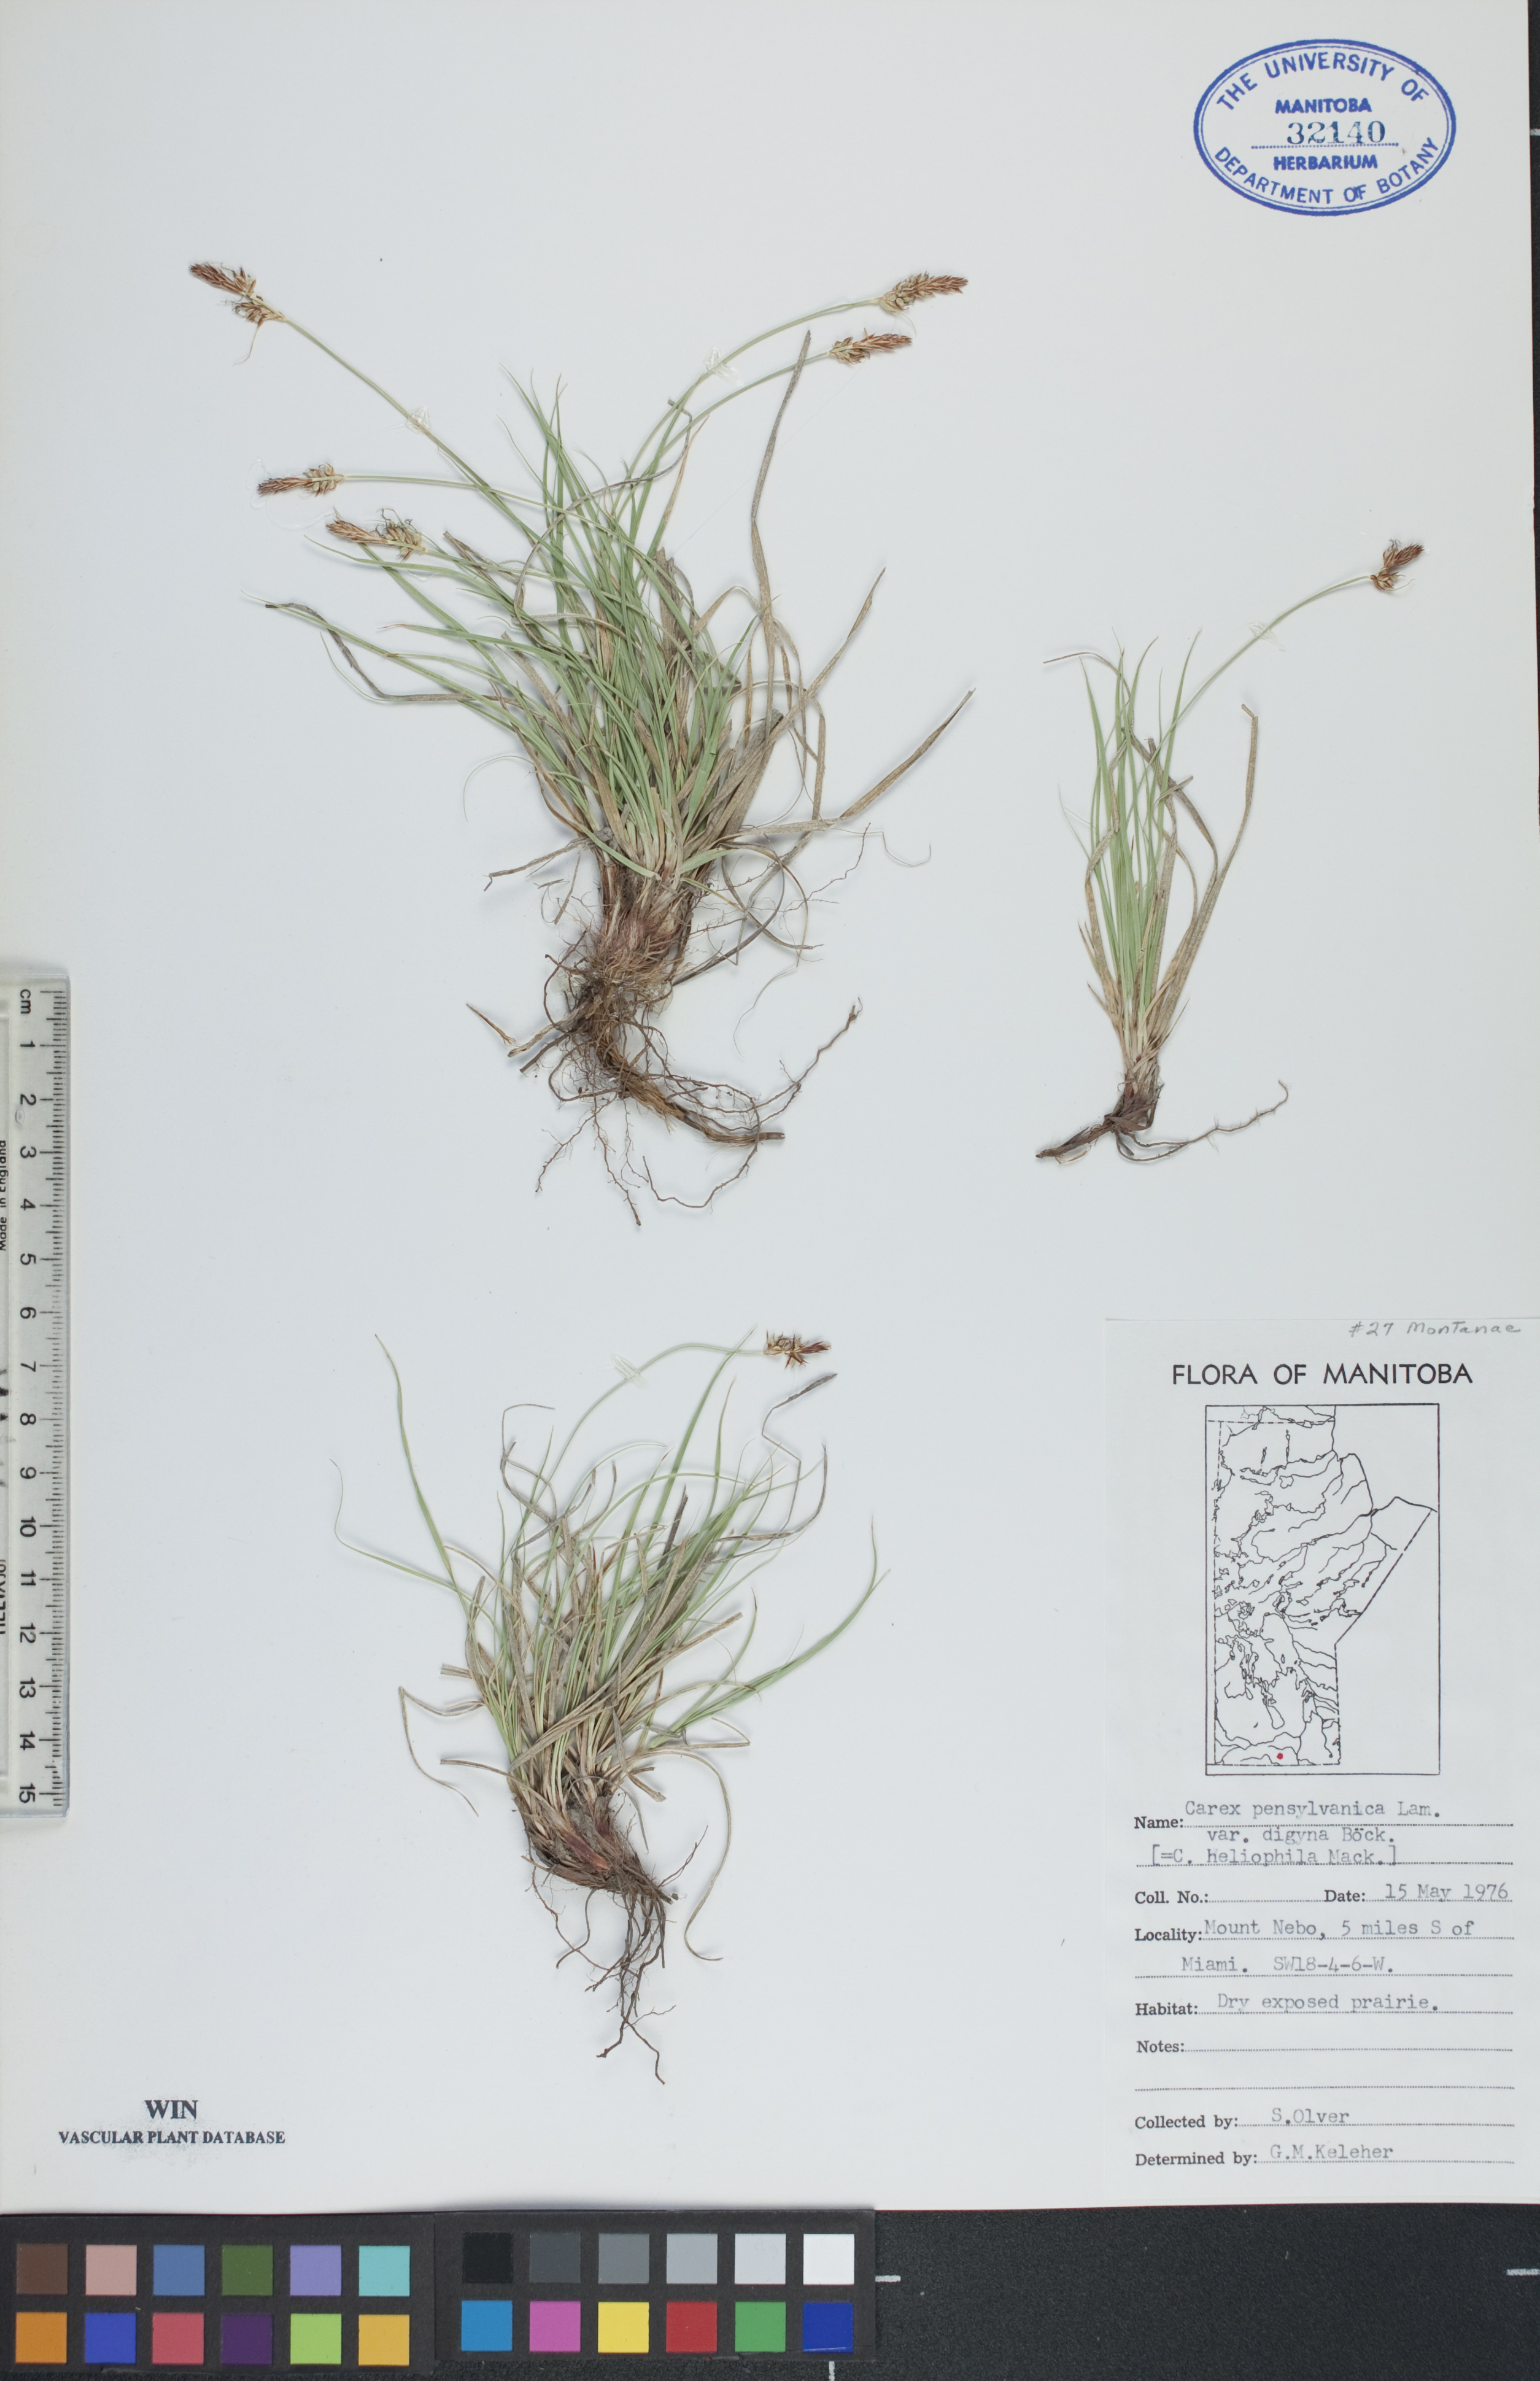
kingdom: Plantae
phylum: Tracheophyta
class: Liliopsida
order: Poales
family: Cyperaceae
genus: Carex
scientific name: Carex inops
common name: Long-stolon sedge
